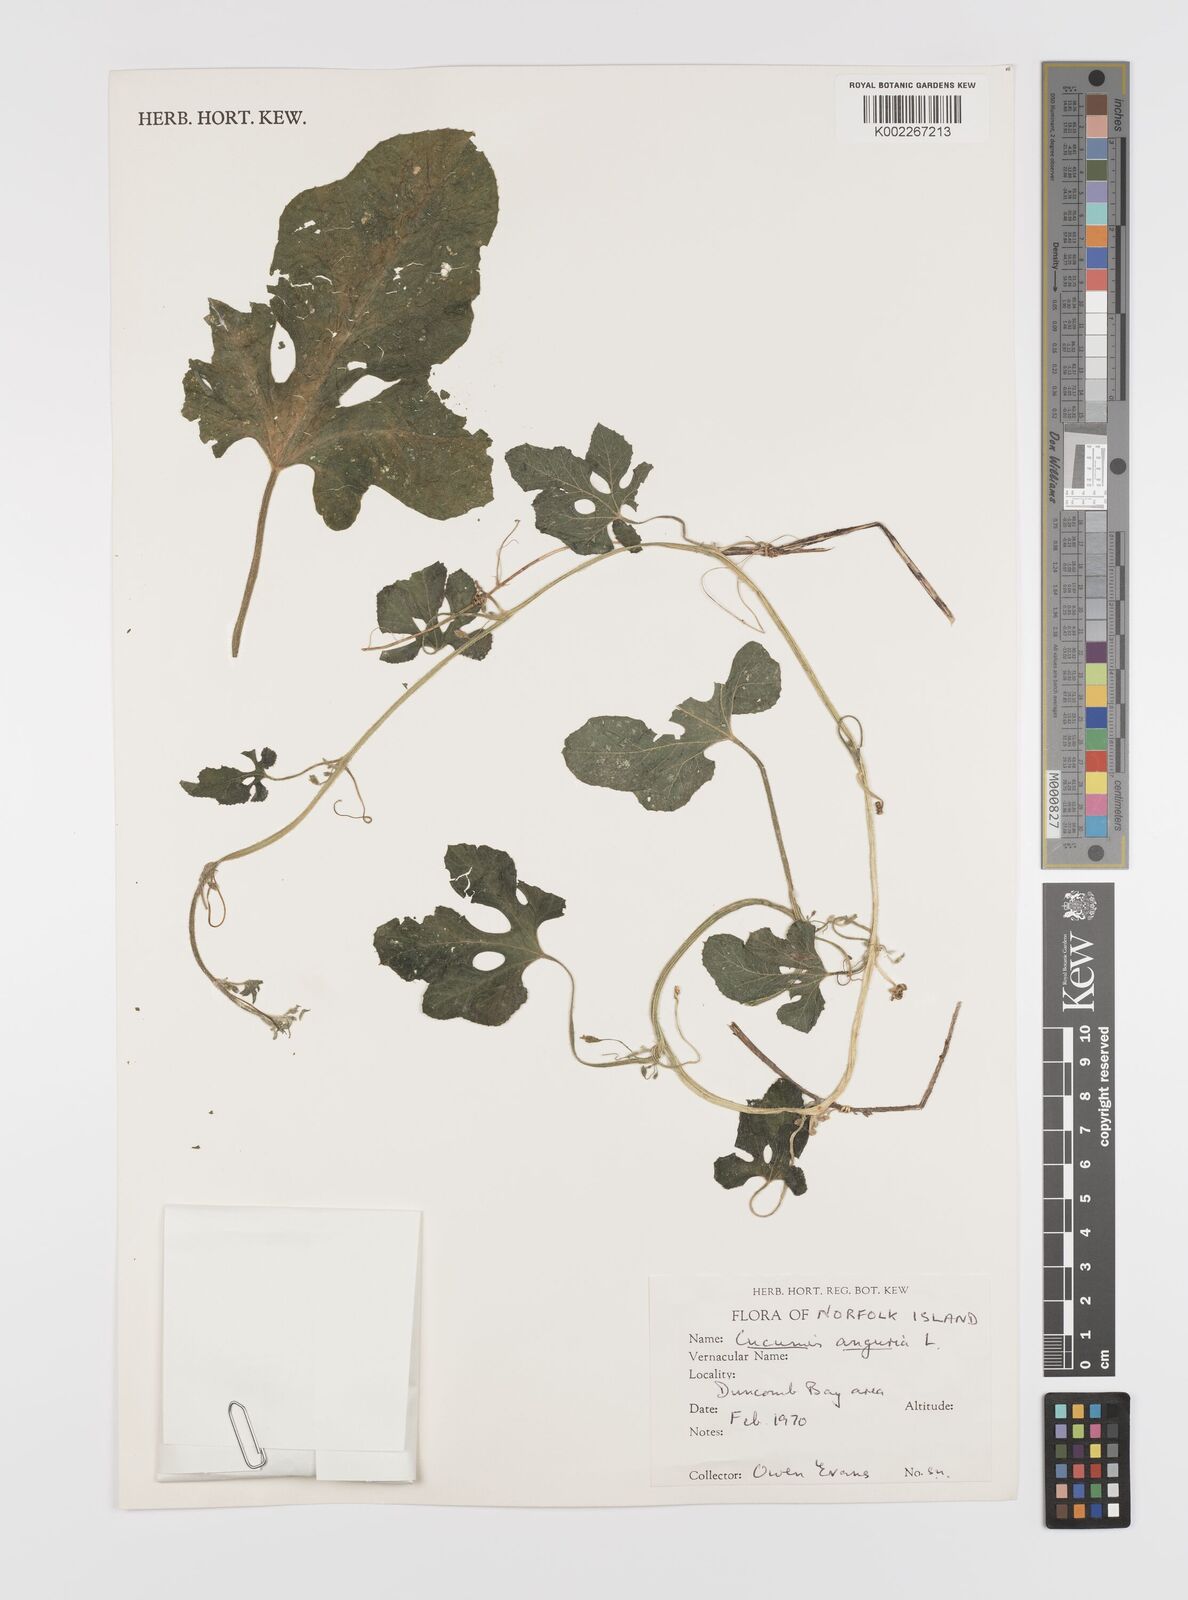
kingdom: Plantae
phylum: Tracheophyta
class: Magnoliopsida
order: Cucurbitales
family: Cucurbitaceae
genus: Cucumis
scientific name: Cucumis anguria
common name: West indian gherkin
